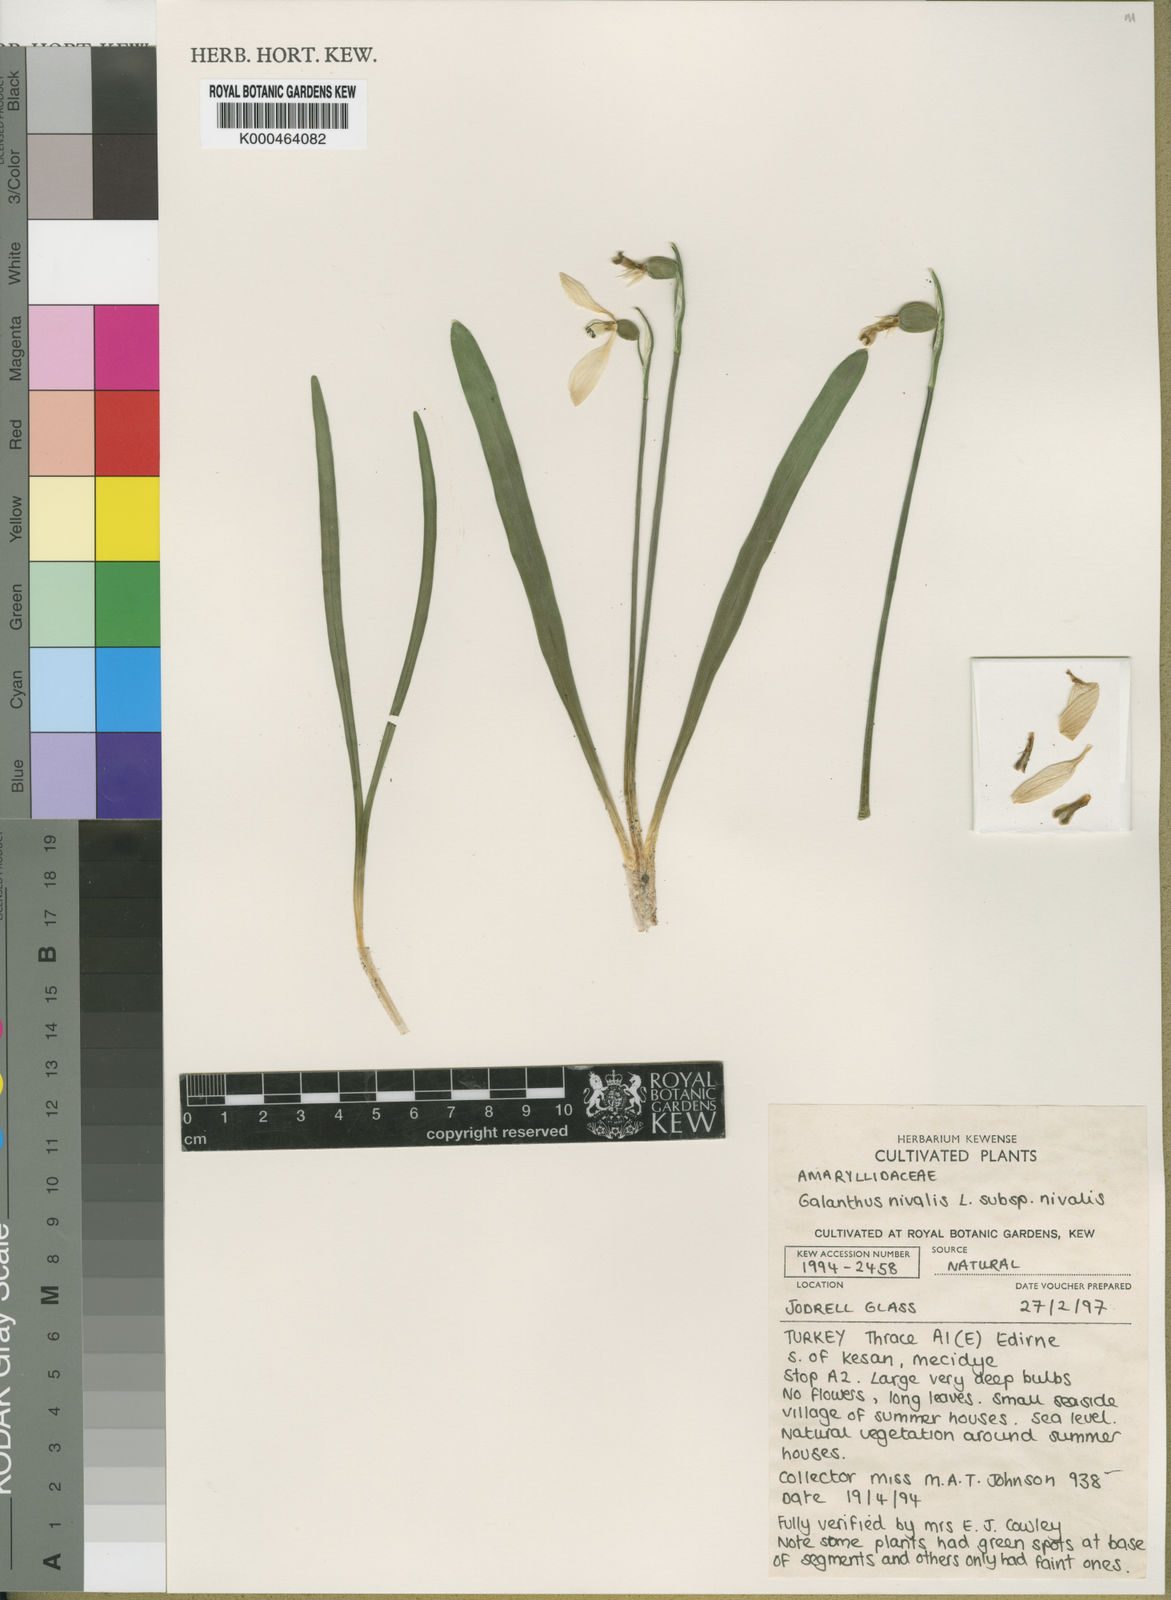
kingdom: Plantae
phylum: Tracheophyta
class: Liliopsida
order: Asparagales
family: Amaryllidaceae
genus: Galanthus
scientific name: Galanthus
